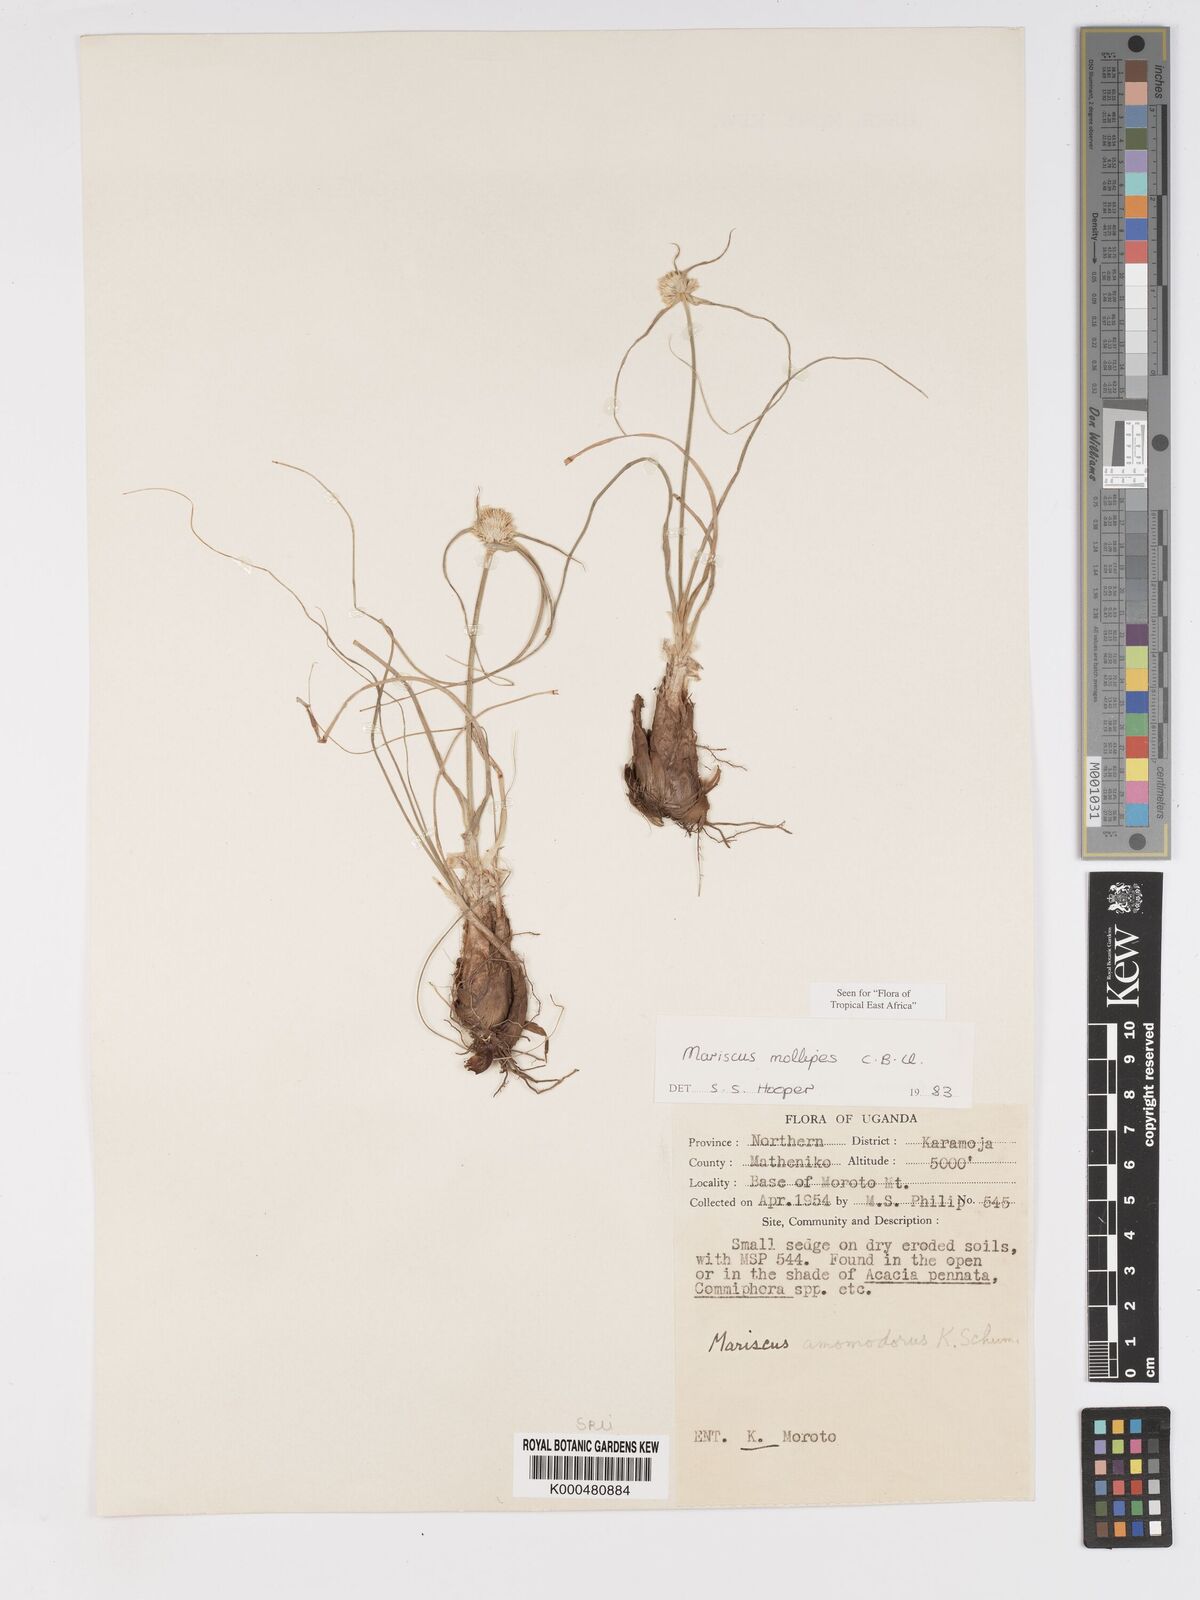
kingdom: Plantae
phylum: Tracheophyta
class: Liliopsida
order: Poales
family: Cyperaceae
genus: Cyperus
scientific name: Cyperus mollipes
